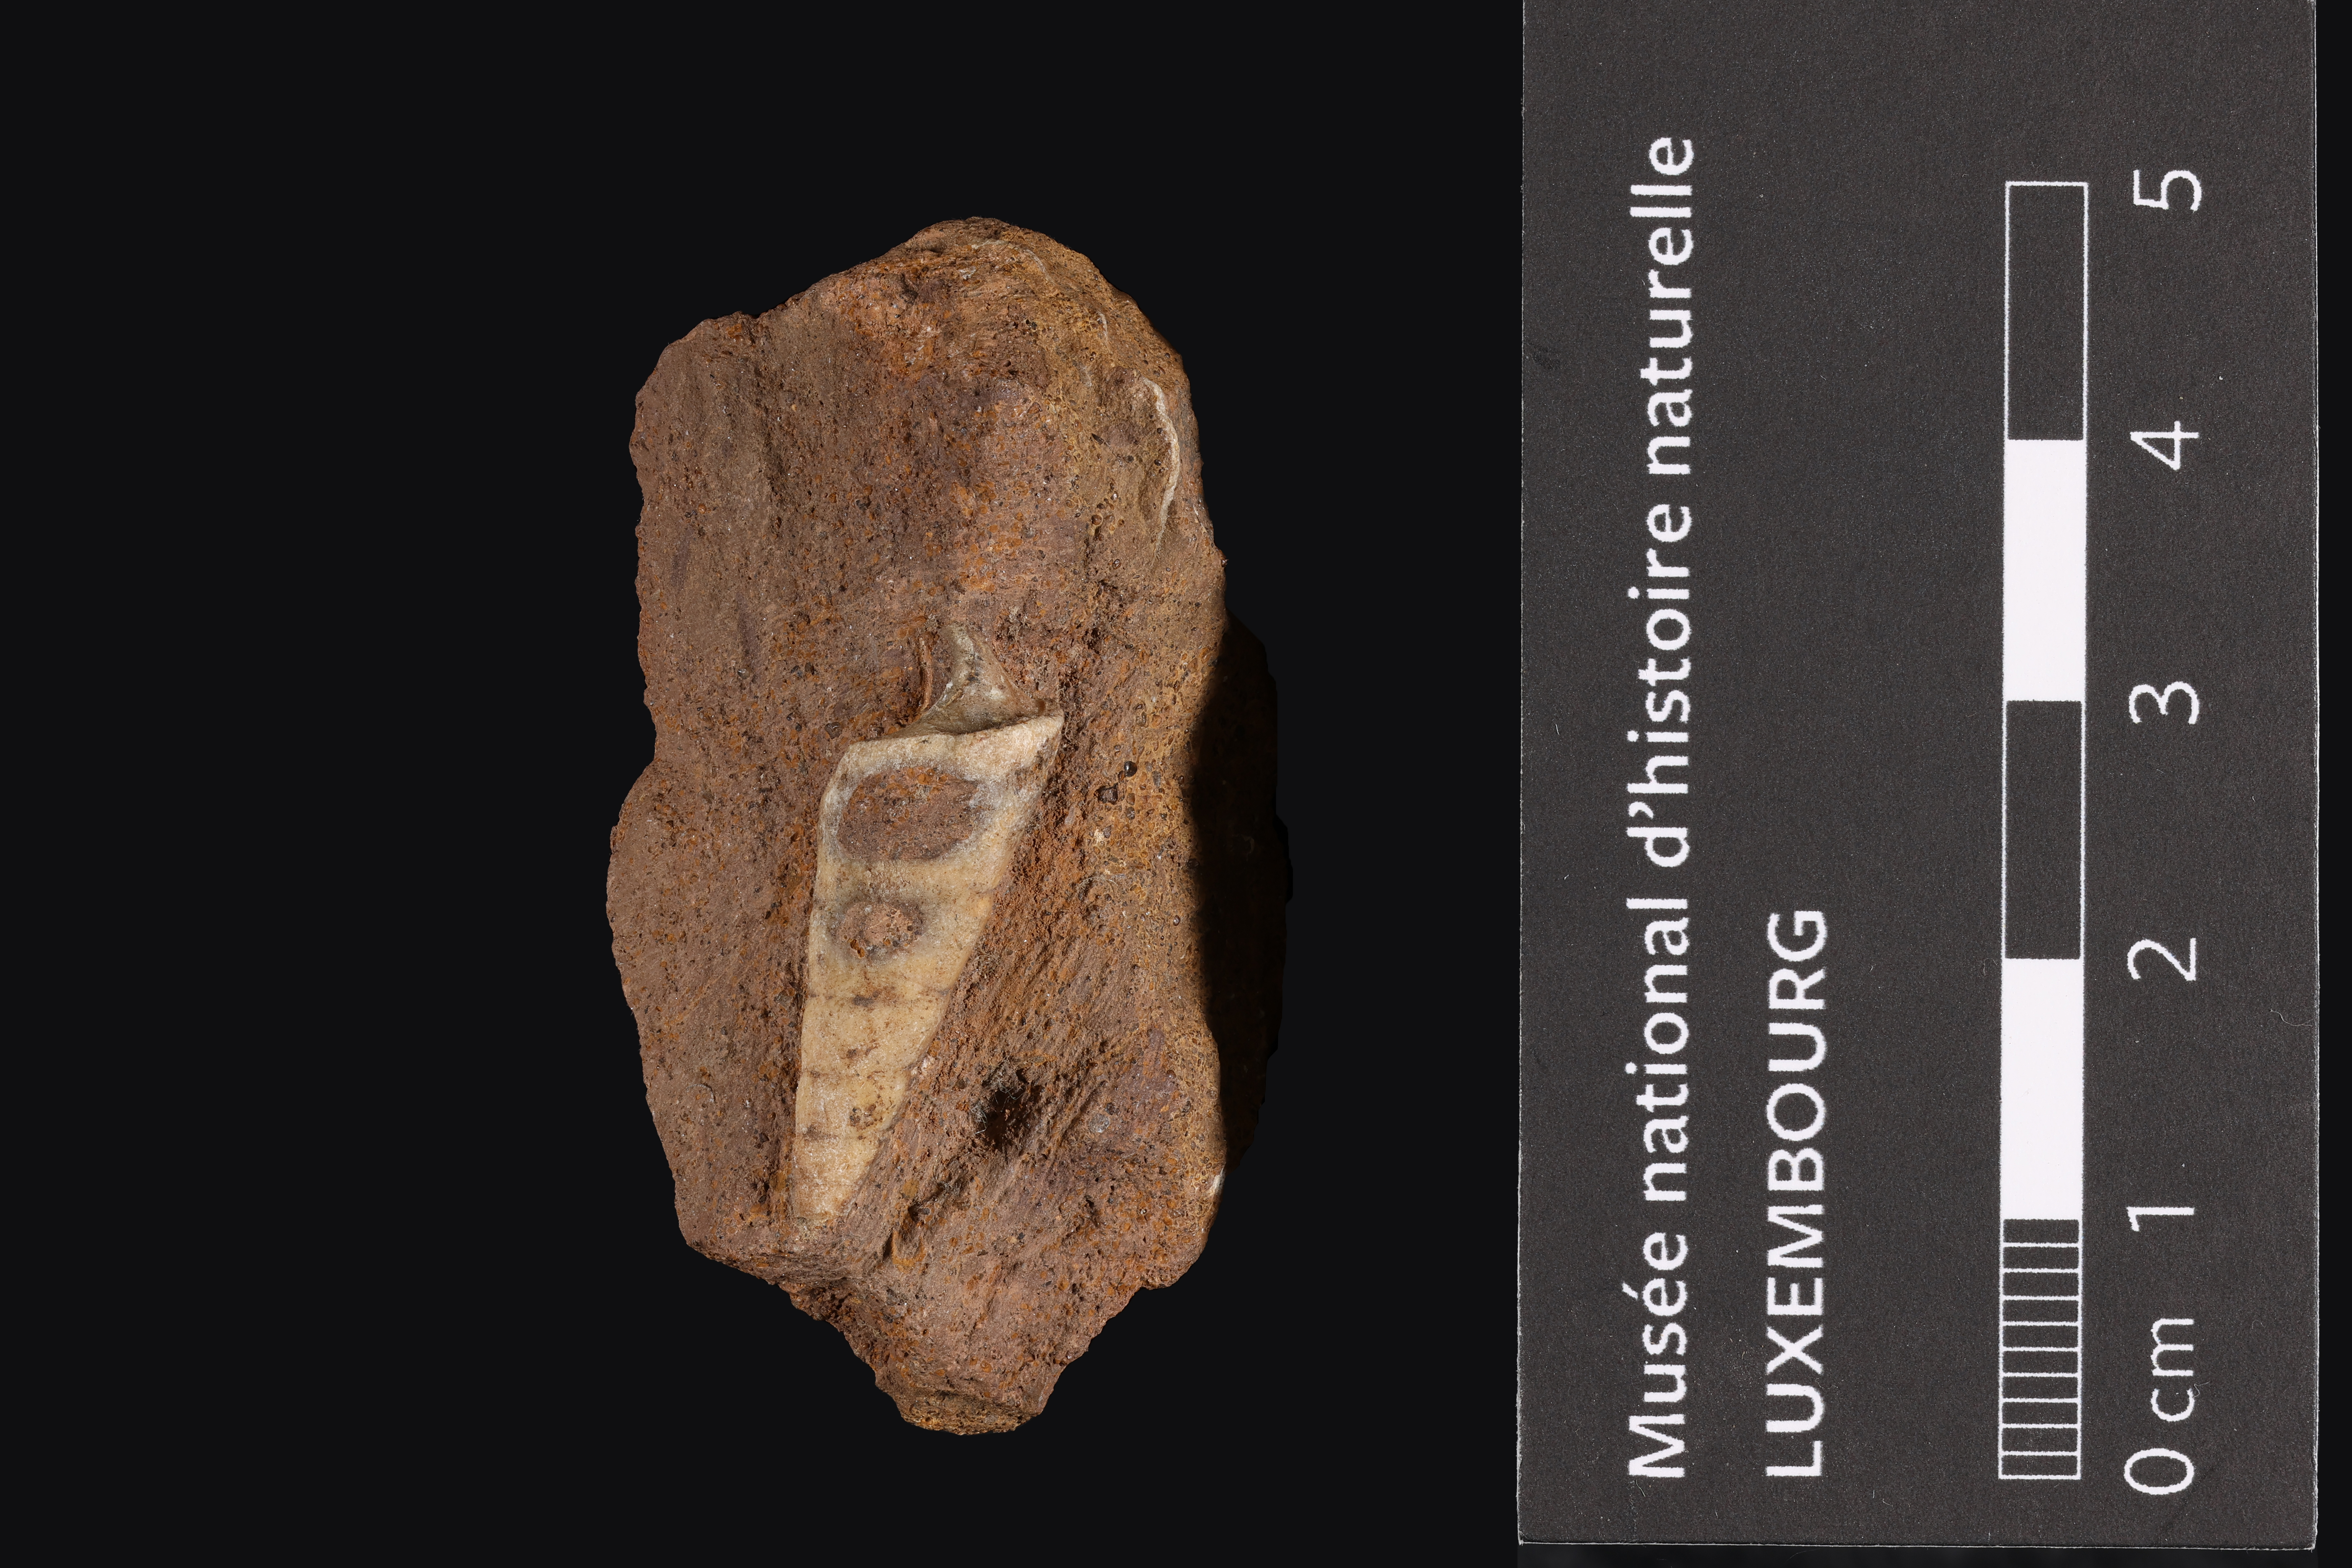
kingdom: Animalia
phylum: Mollusca
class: Gastropoda
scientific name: Gastropoda
